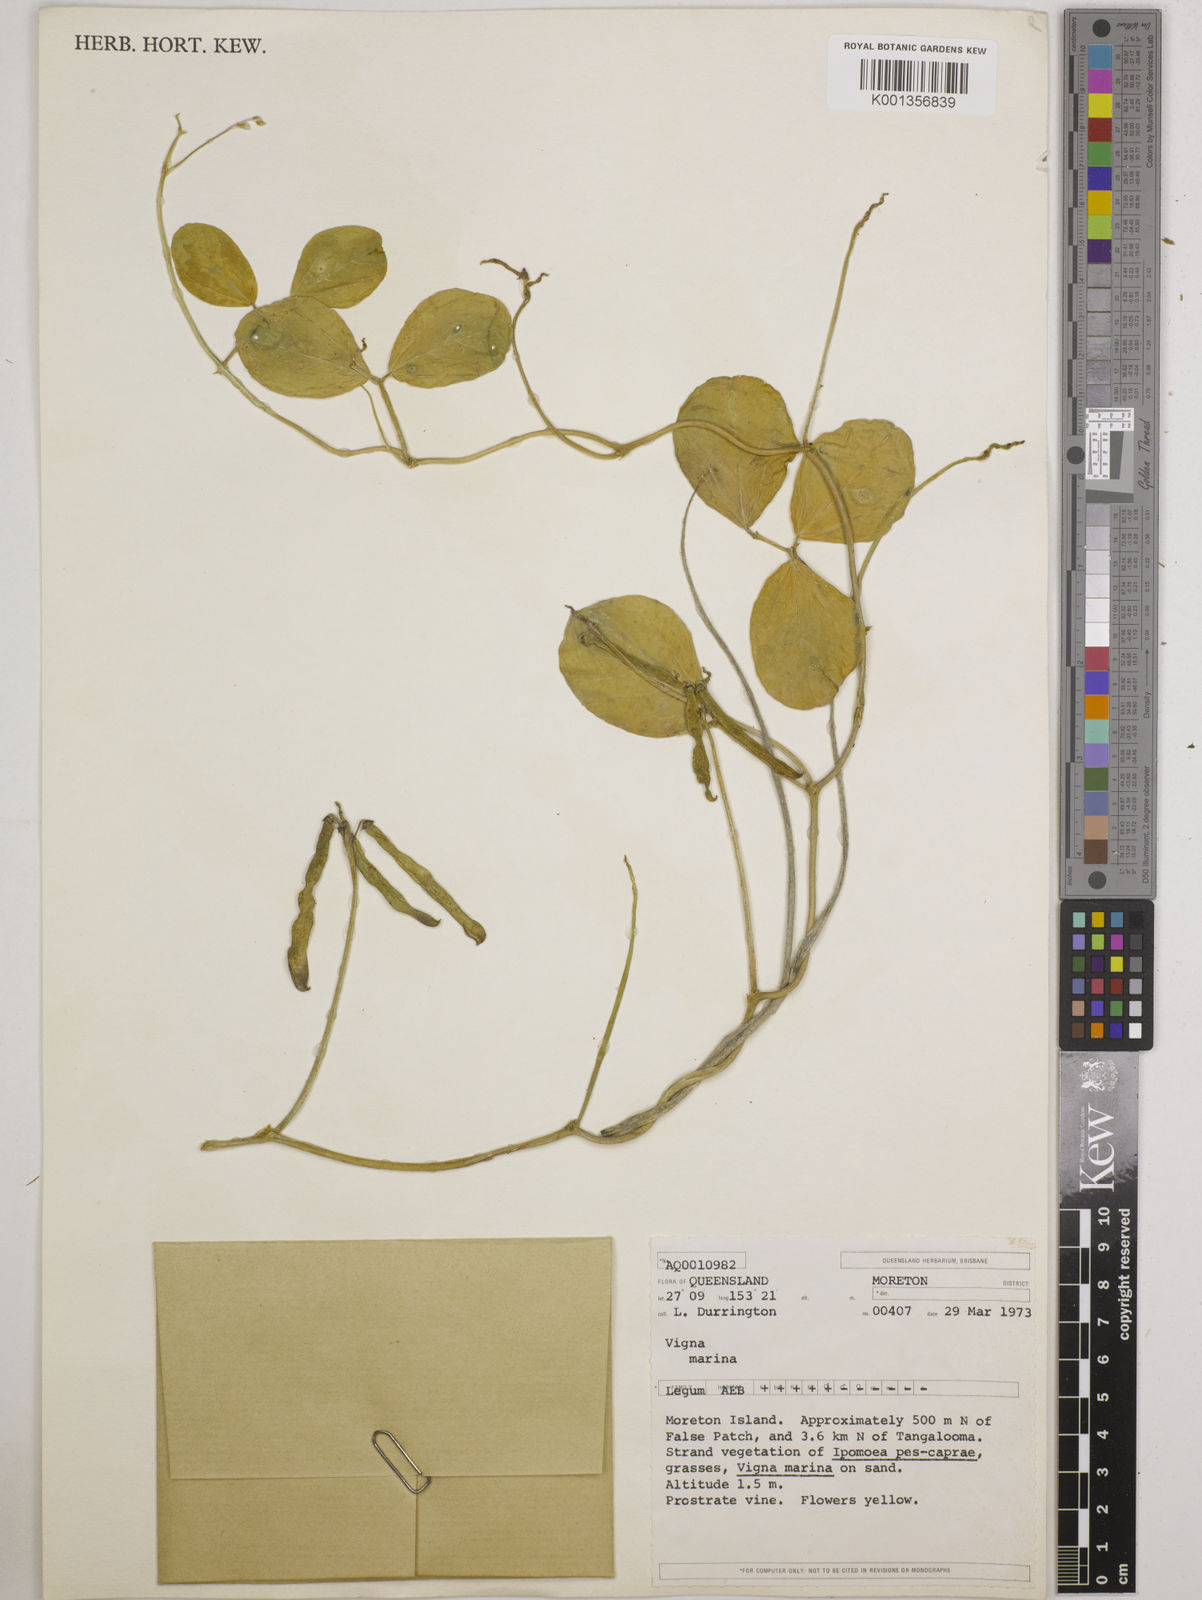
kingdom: Plantae
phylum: Tracheophyta
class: Magnoliopsida
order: Fabales
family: Fabaceae
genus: Vigna
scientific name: Vigna marina
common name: Dune-bean
